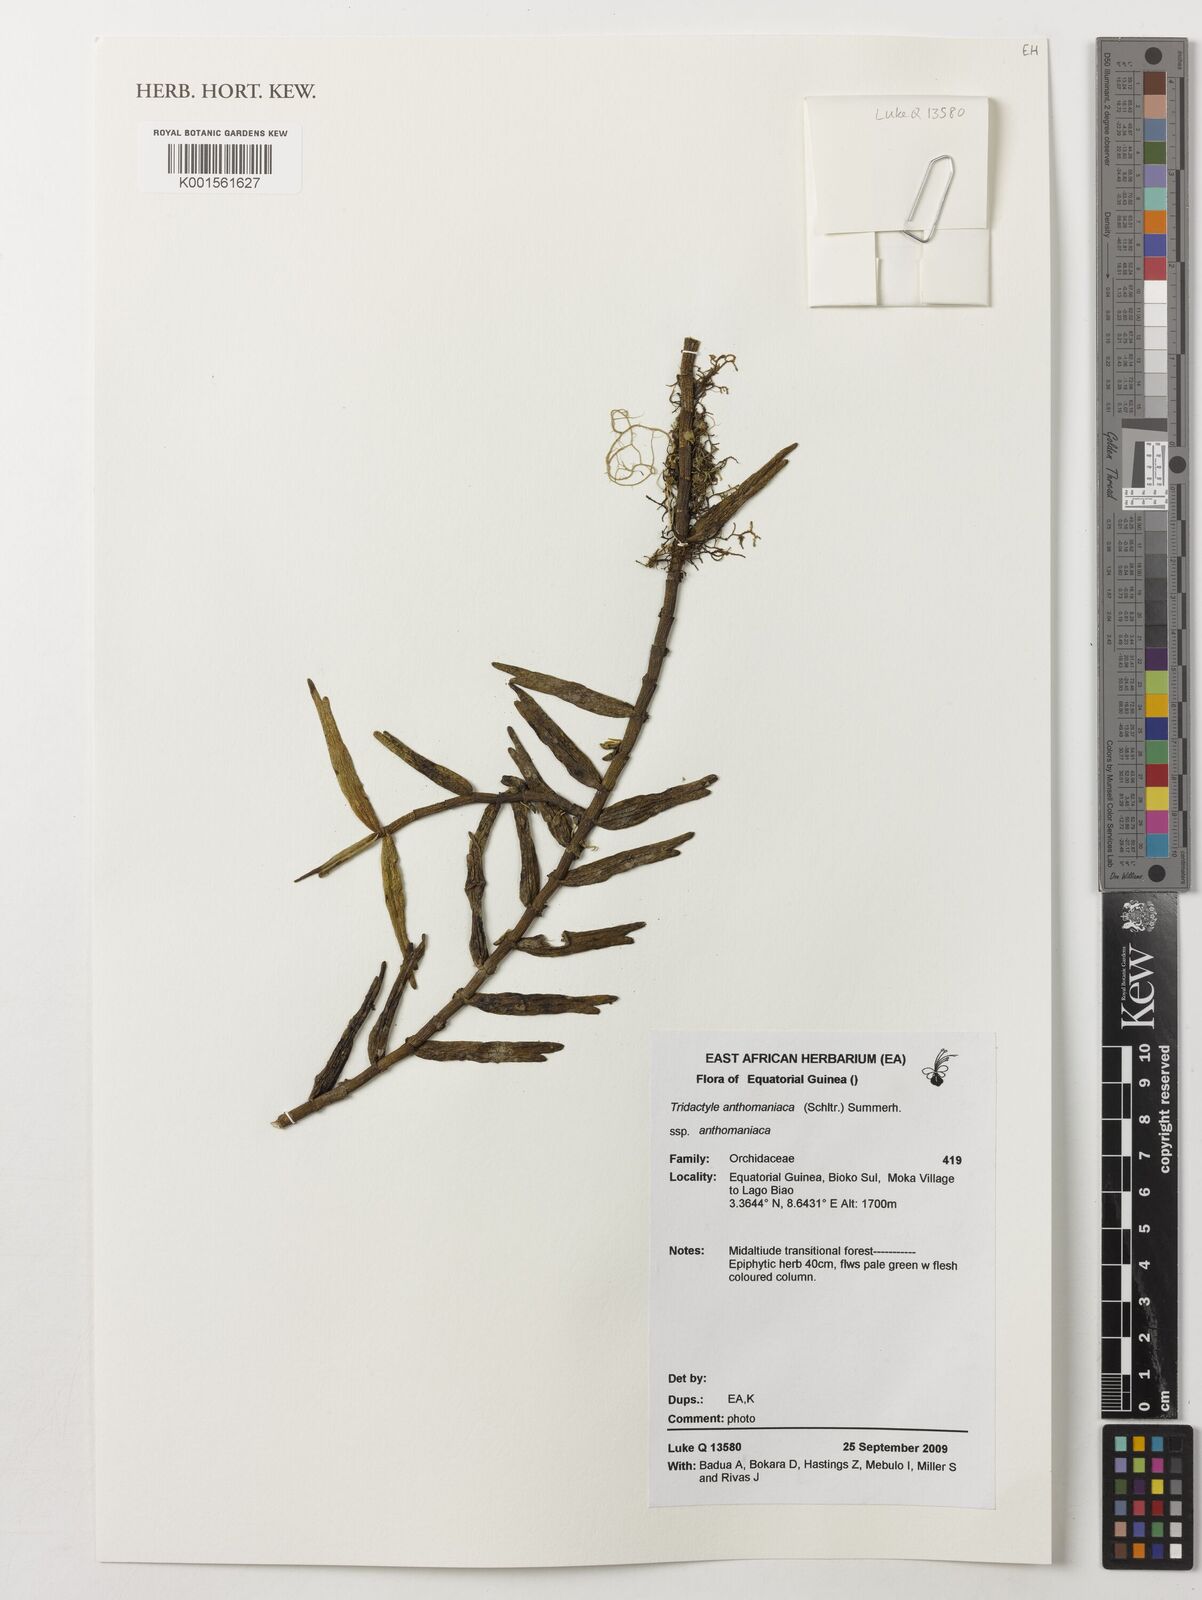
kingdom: Plantae
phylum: Tracheophyta
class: Liliopsida
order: Asparagales
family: Orchidaceae
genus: Tridactyle
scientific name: Tridactyle anthomaniaca
